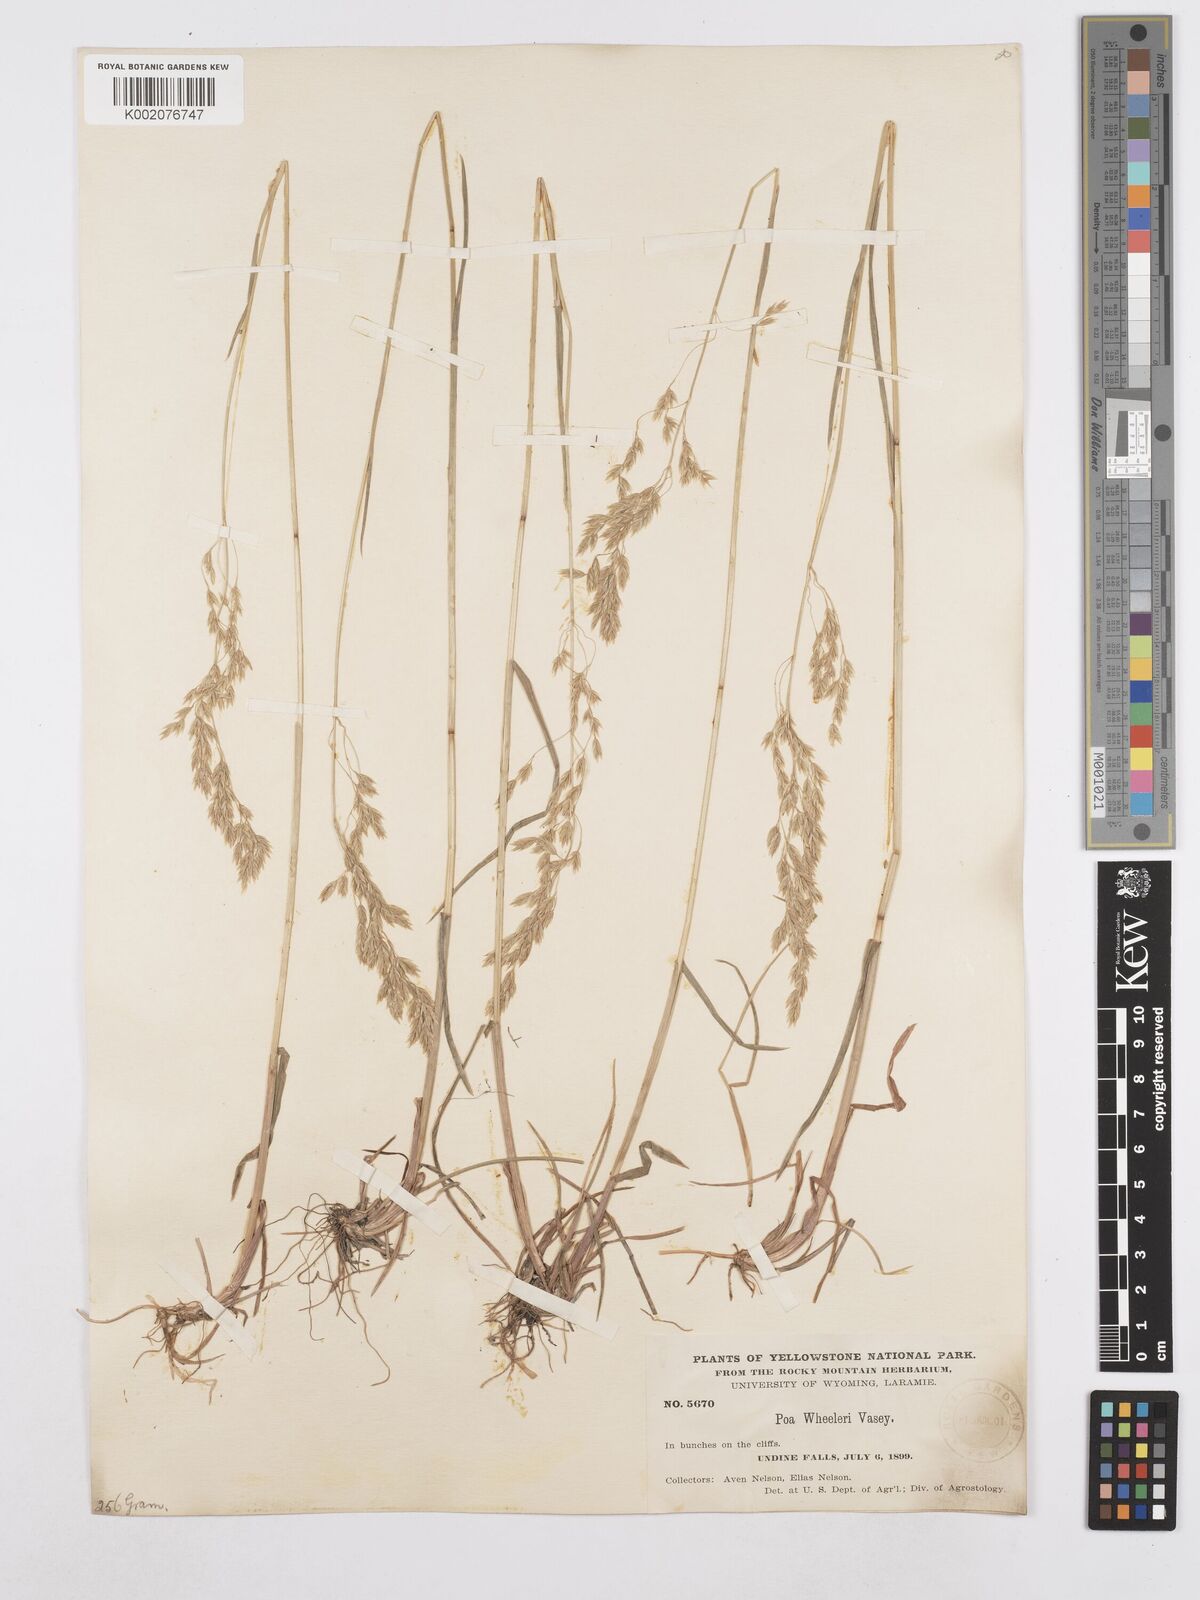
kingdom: Plantae
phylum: Tracheophyta
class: Liliopsida
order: Poales
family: Poaceae
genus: Poa
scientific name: Poa wheeleri
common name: Wheeler's bluegrass
